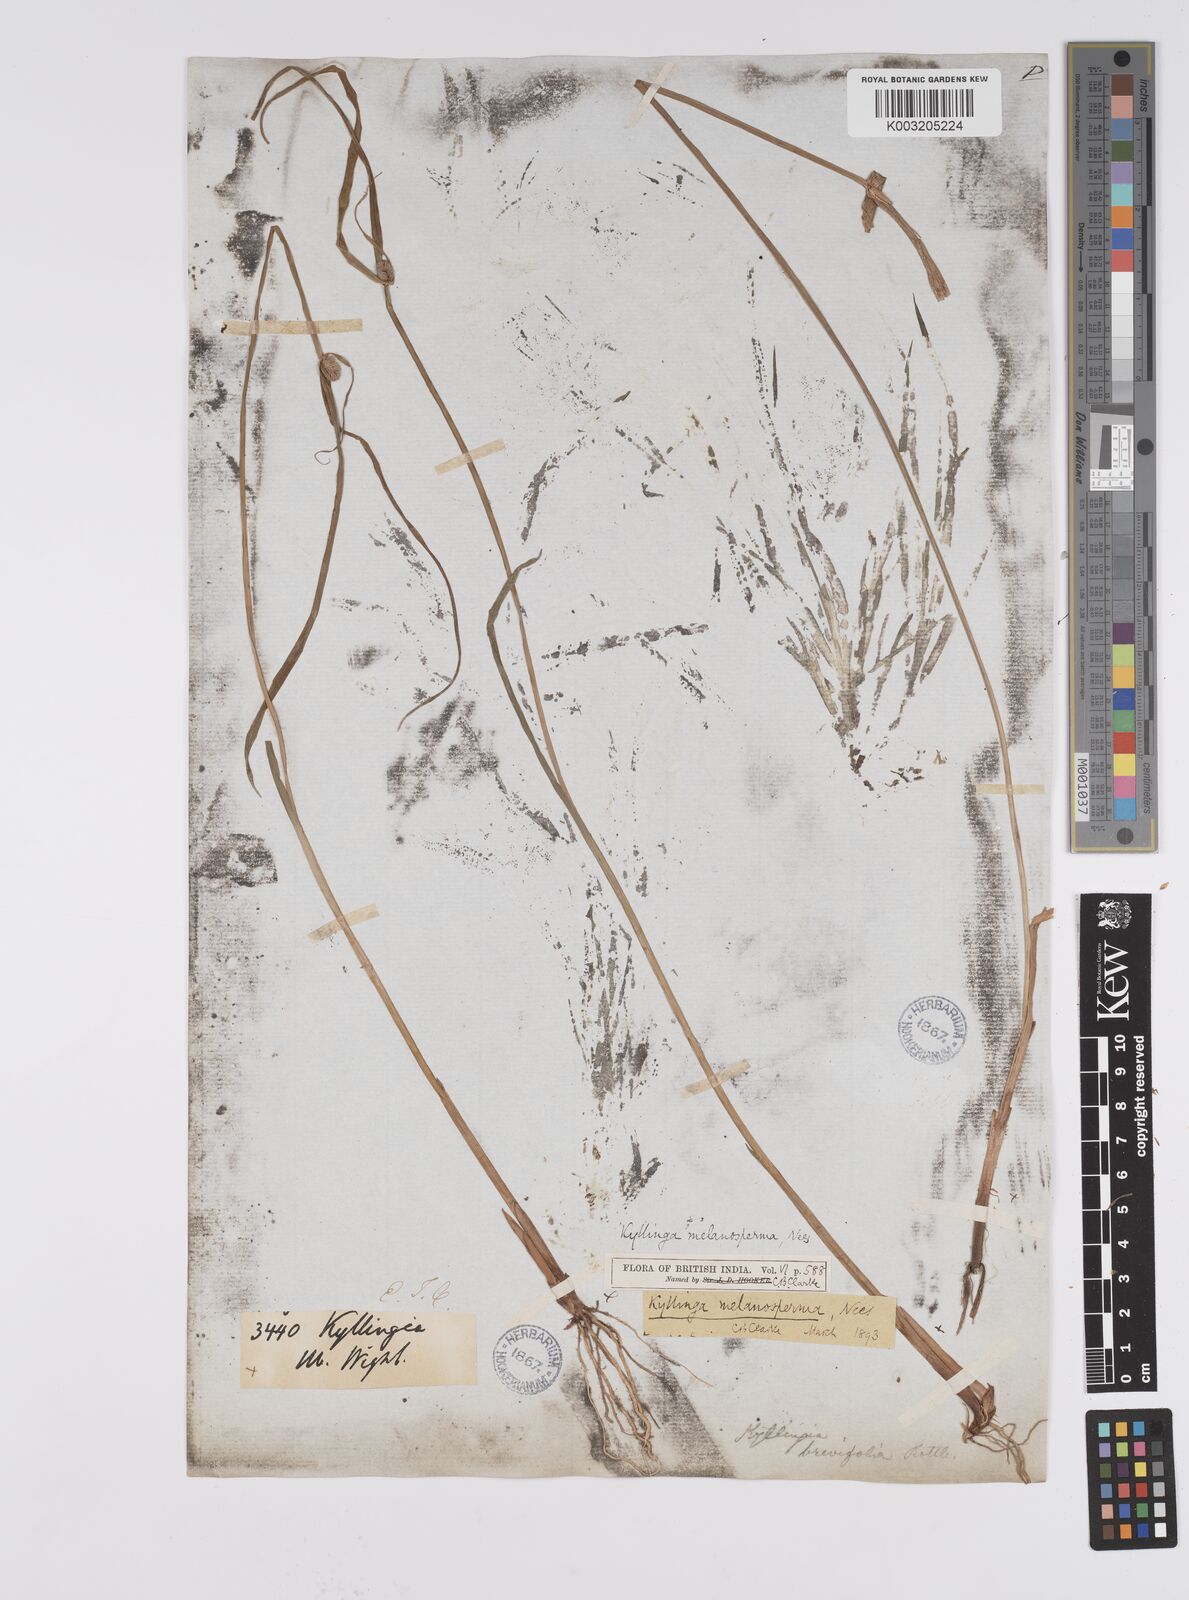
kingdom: Plantae
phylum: Tracheophyta
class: Liliopsida
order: Poales
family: Cyperaceae
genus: Cyperus
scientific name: Cyperus melanospermus
